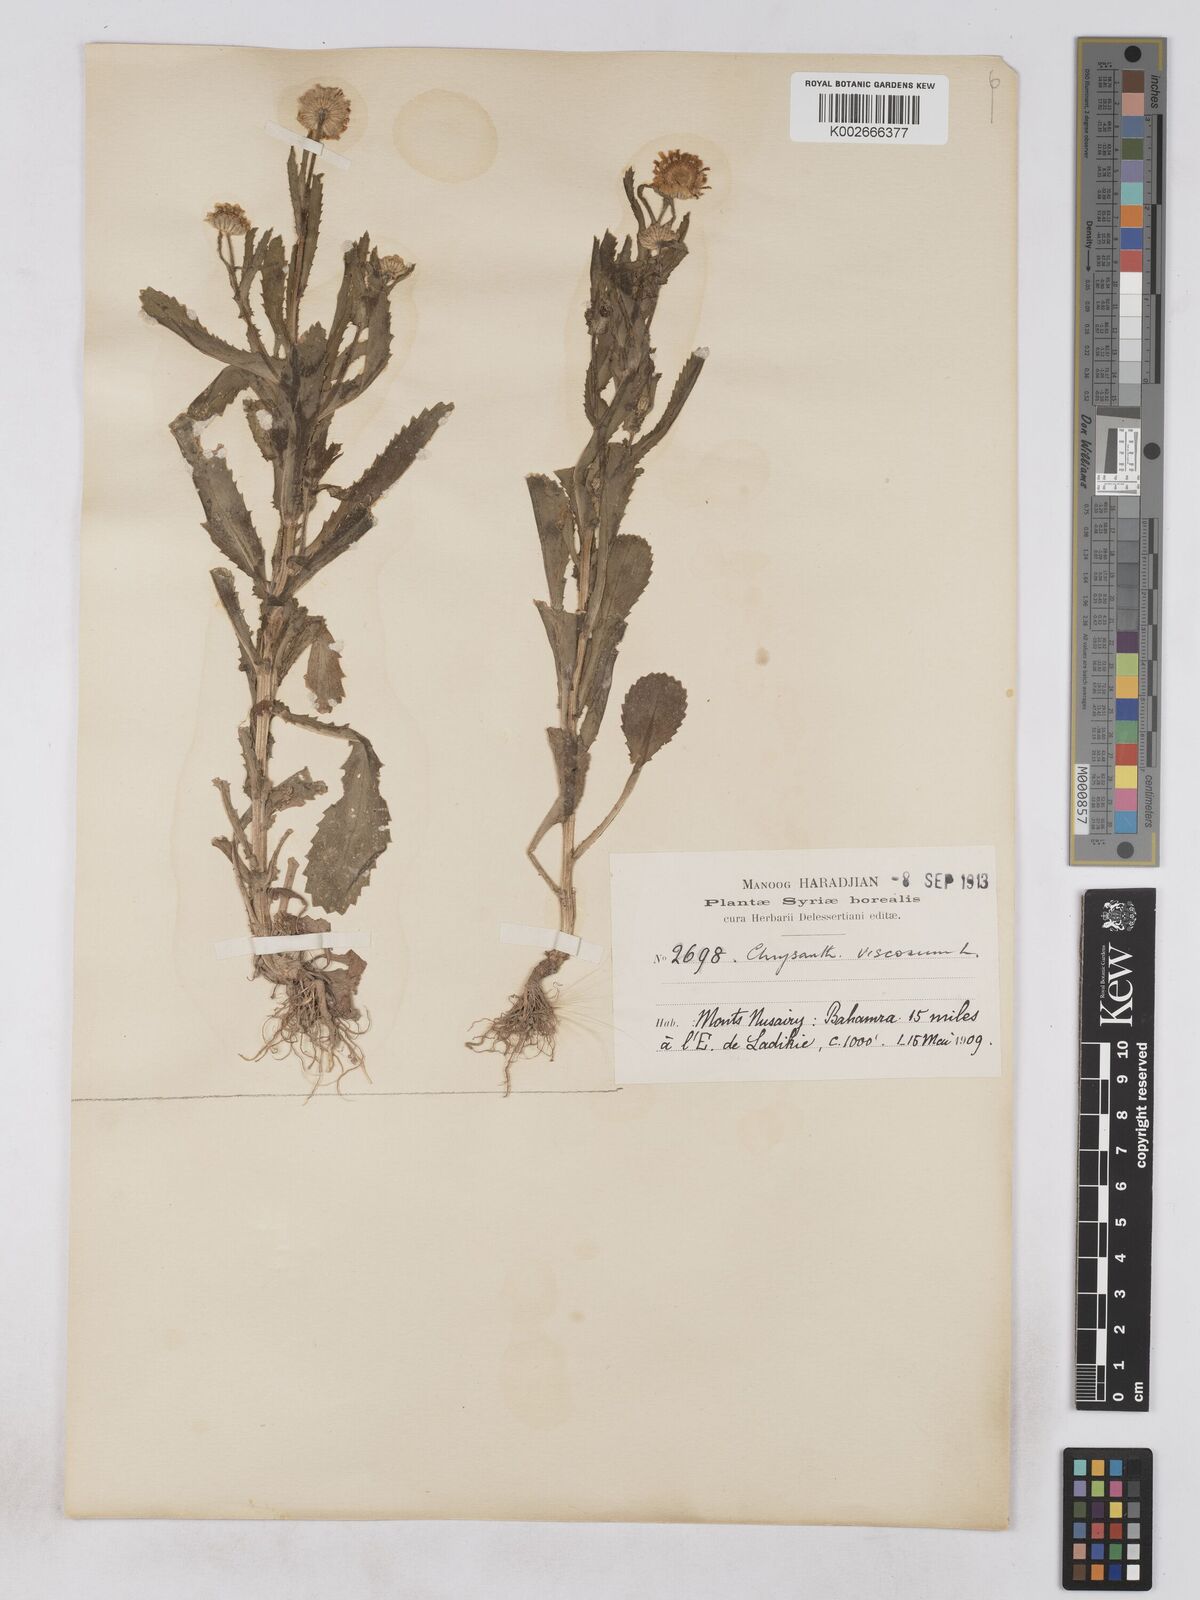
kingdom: Plantae
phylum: Tracheophyta
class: Magnoliopsida
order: Asterales
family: Asteraceae
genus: Heteranthemis
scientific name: Heteranthemis
